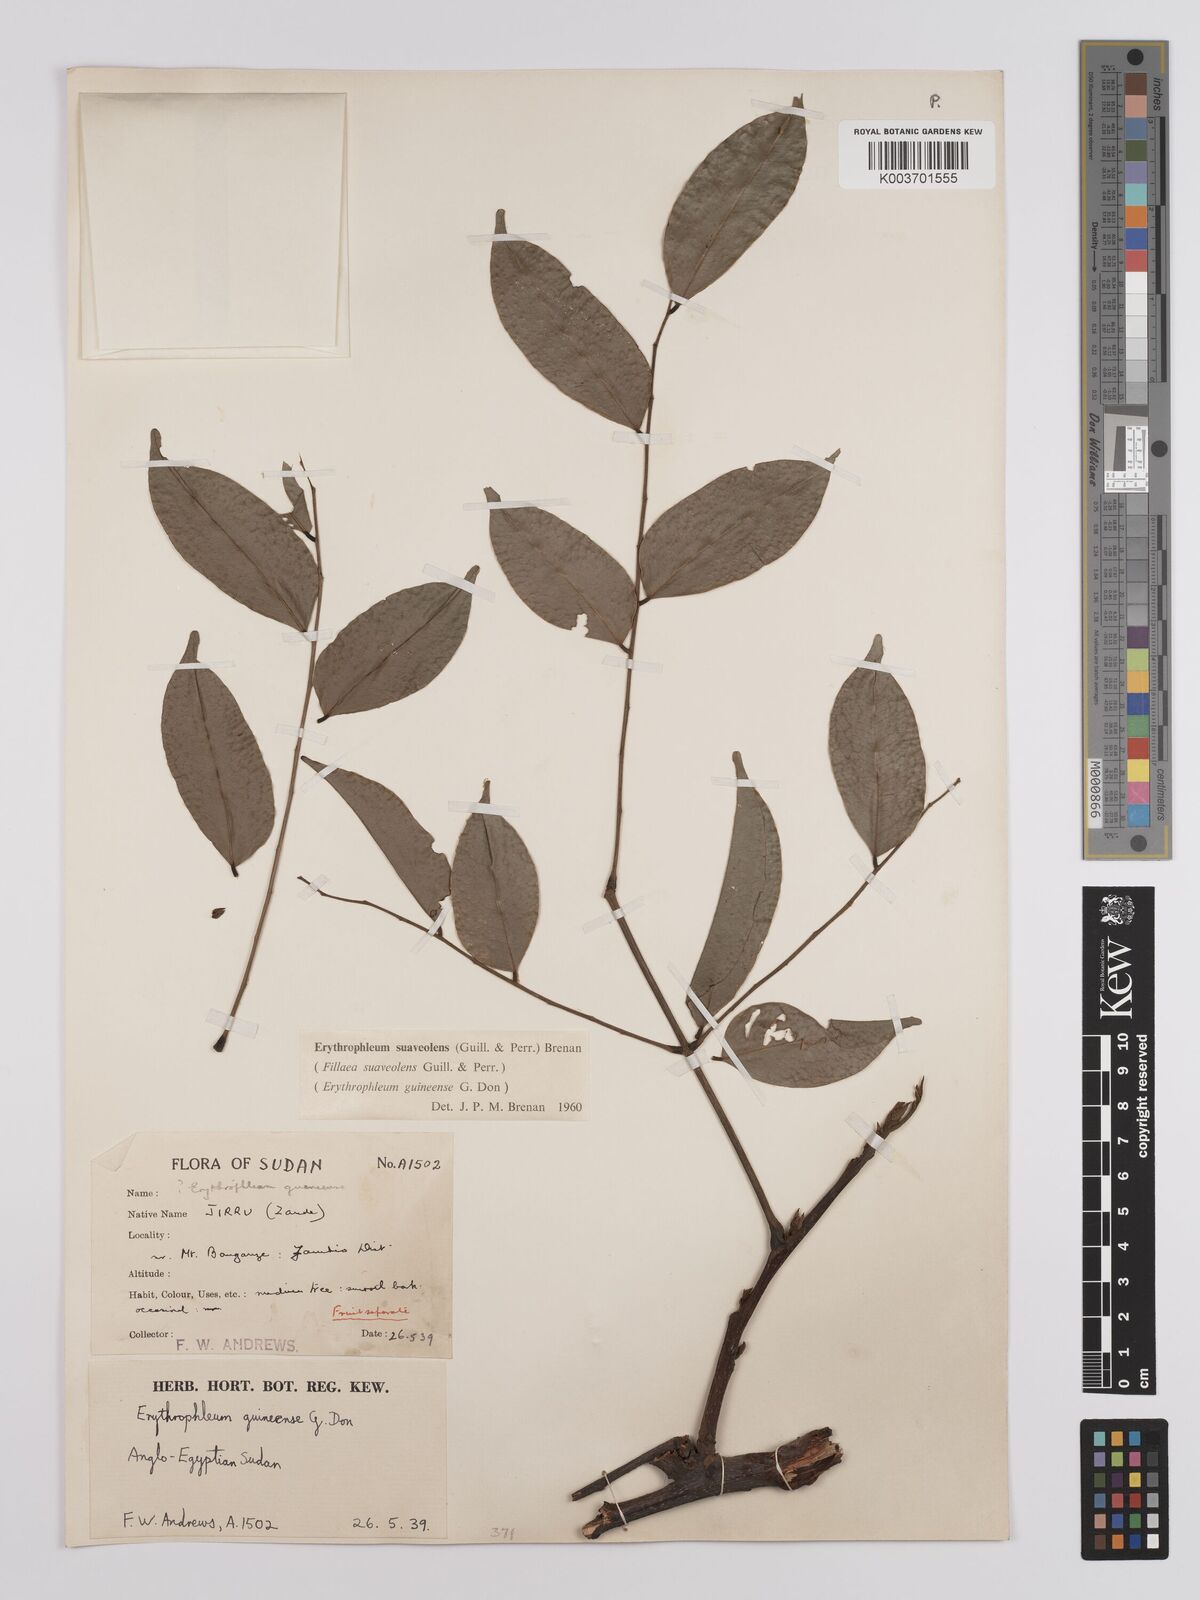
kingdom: Plantae
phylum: Tracheophyta
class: Magnoliopsida
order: Fabales
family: Fabaceae
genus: Erythrophleum
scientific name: Erythrophleum suaveolens
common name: Ordeal tree
